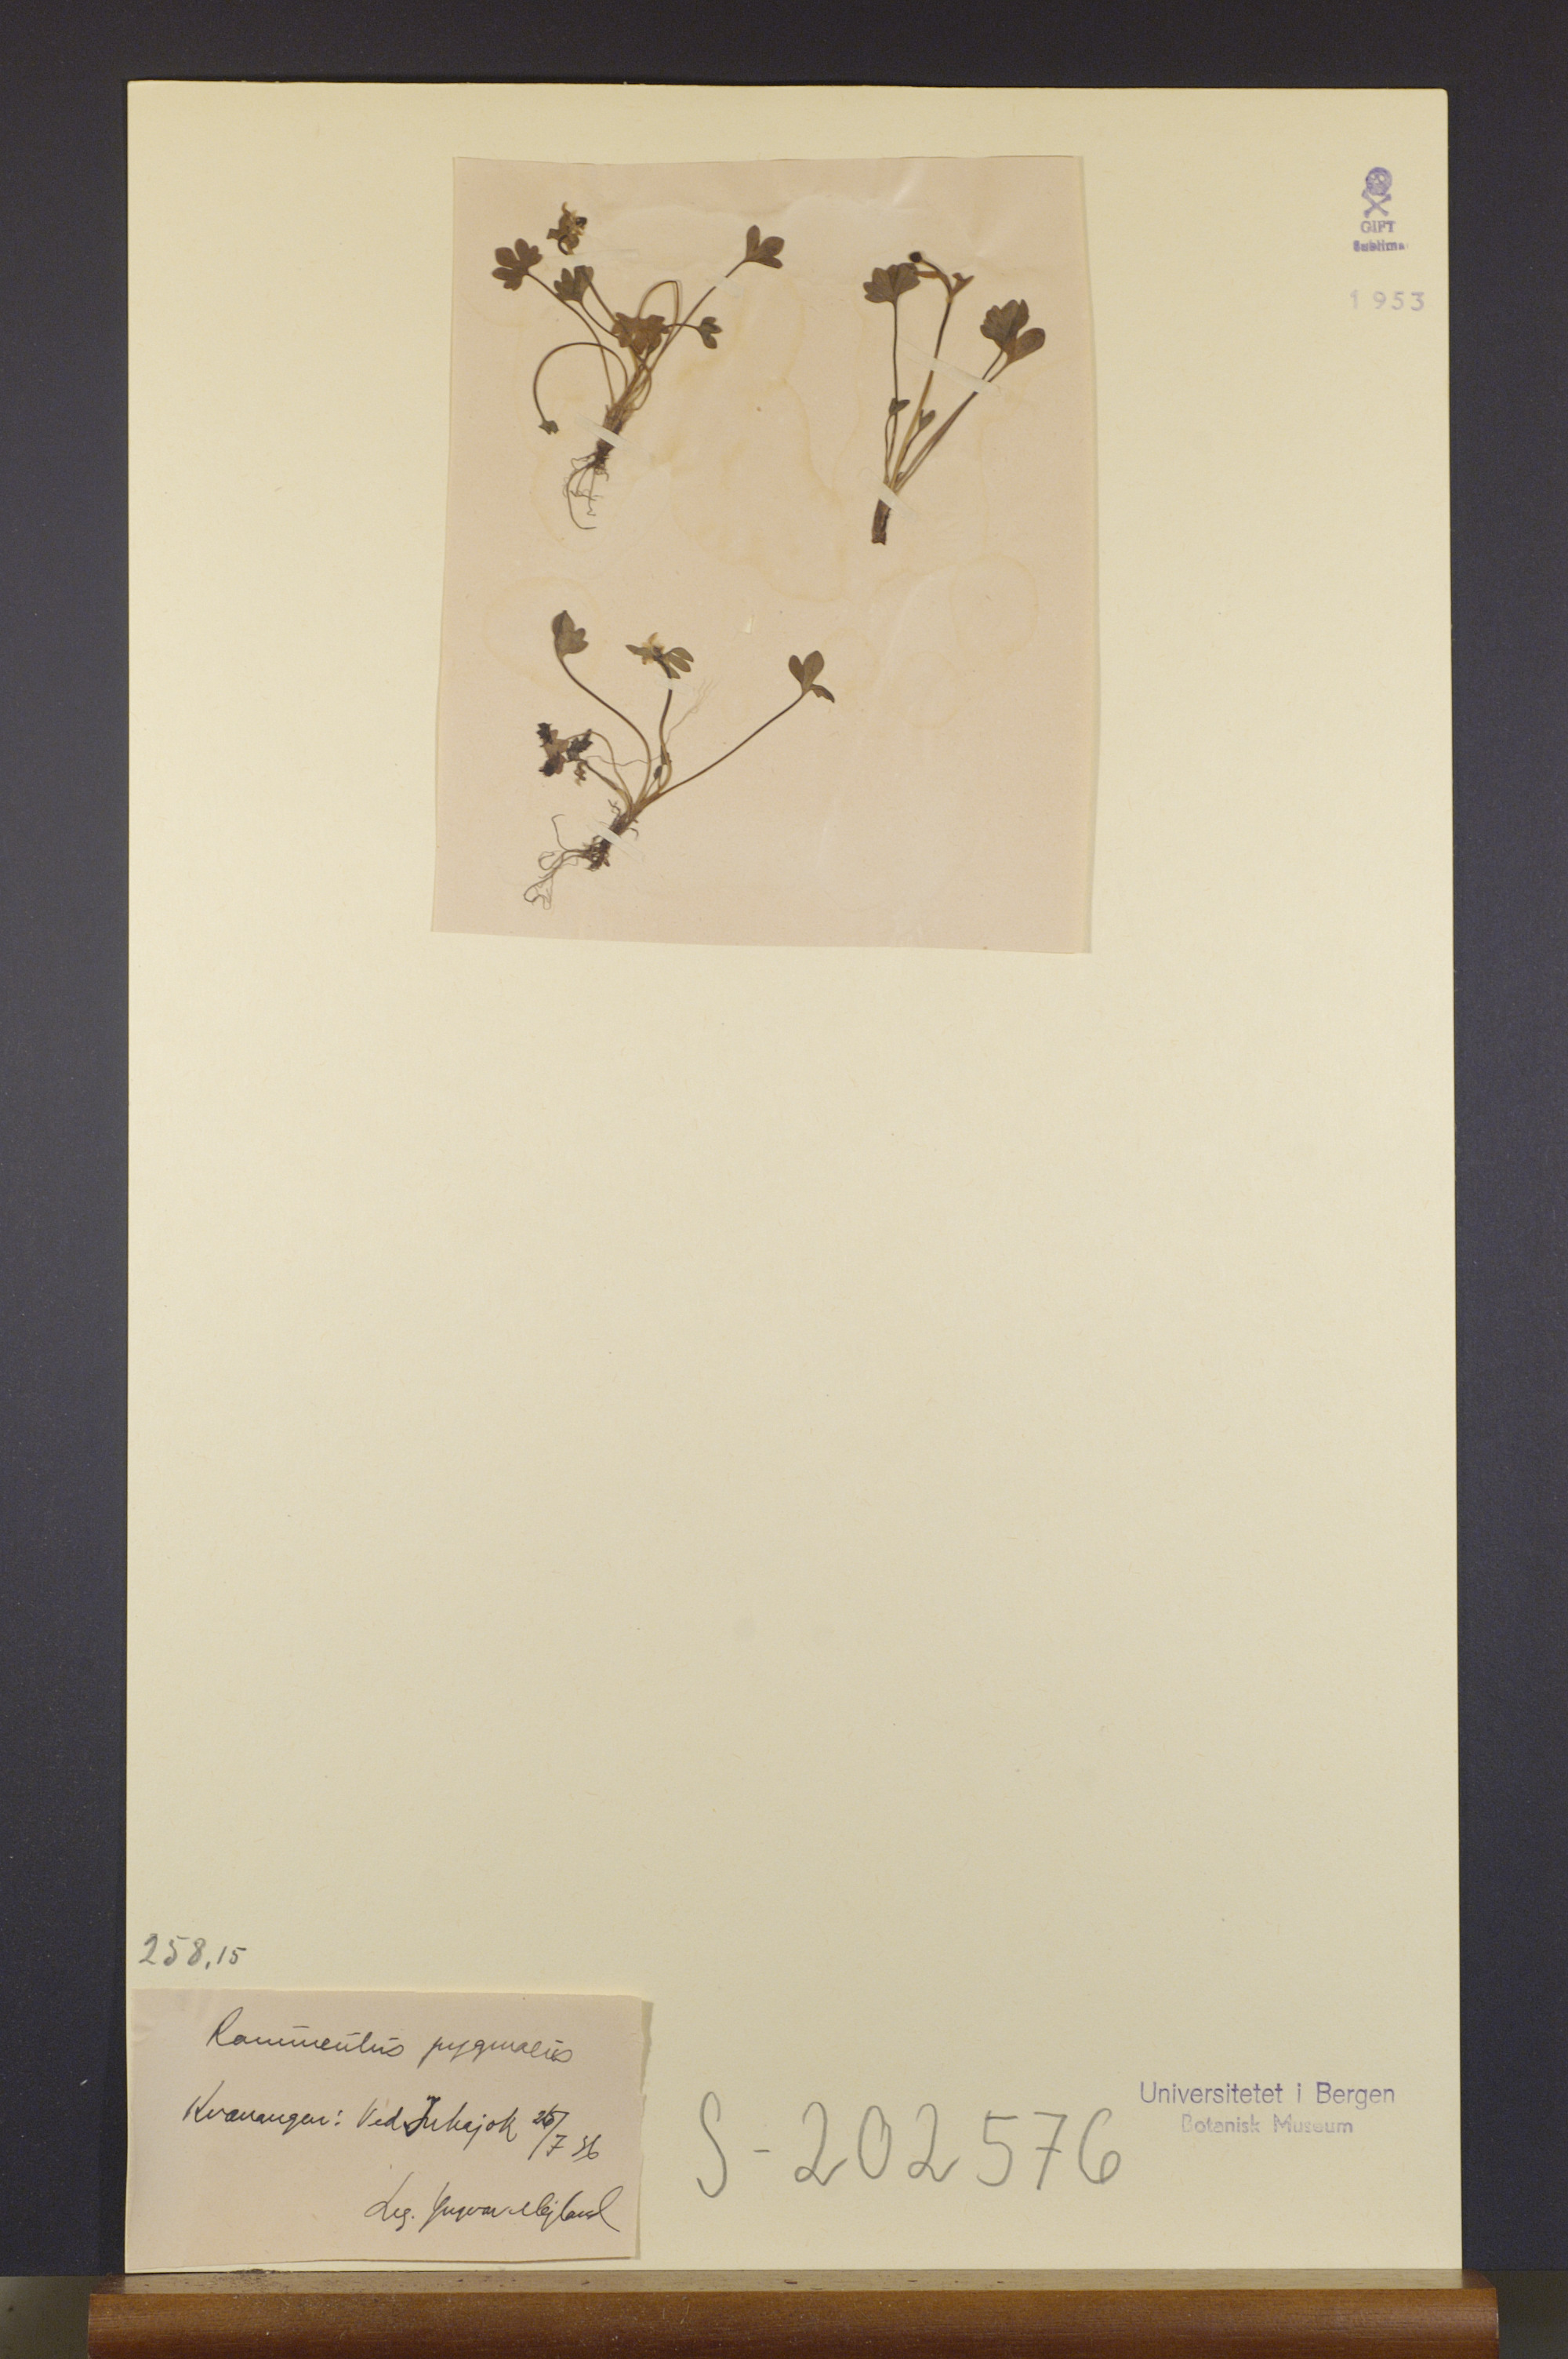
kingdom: Plantae
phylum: Tracheophyta
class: Magnoliopsida
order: Ranunculales
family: Ranunculaceae
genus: Ranunculus
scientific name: Ranunculus pygmaeus
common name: Dwarf buttercup
